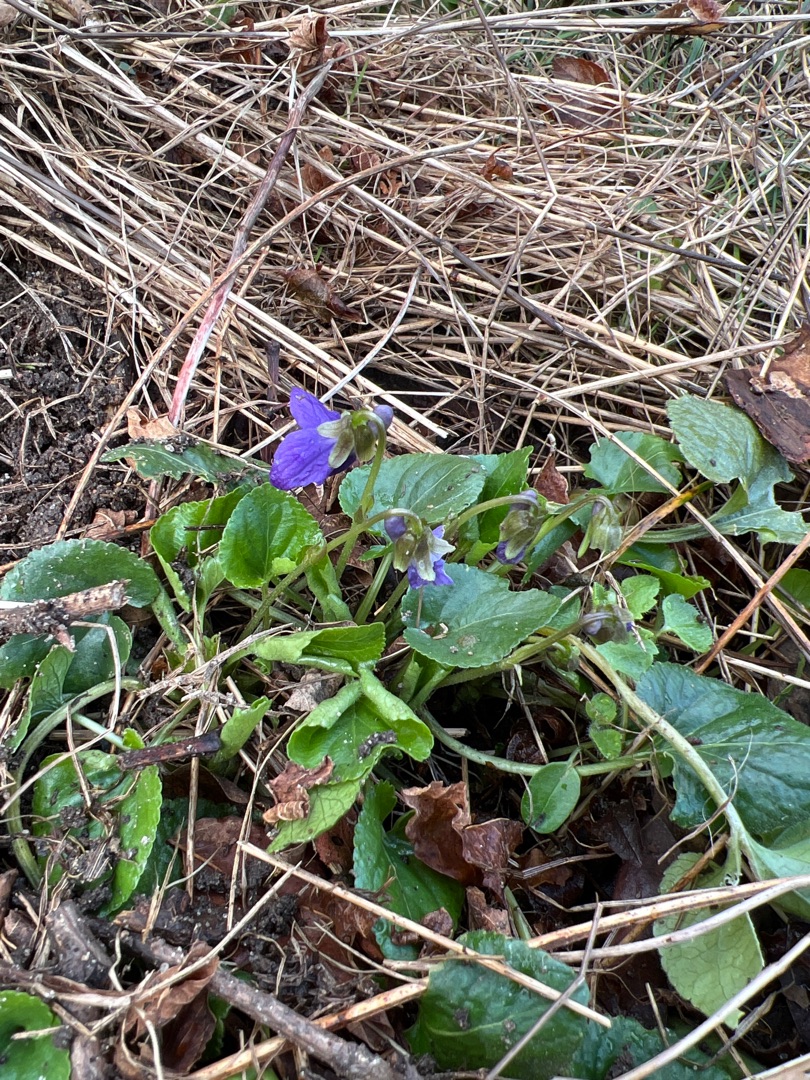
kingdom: Plantae
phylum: Tracheophyta
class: Magnoliopsida
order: Malpighiales
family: Violaceae
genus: Viola
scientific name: Viola odorata
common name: Marts-viol
